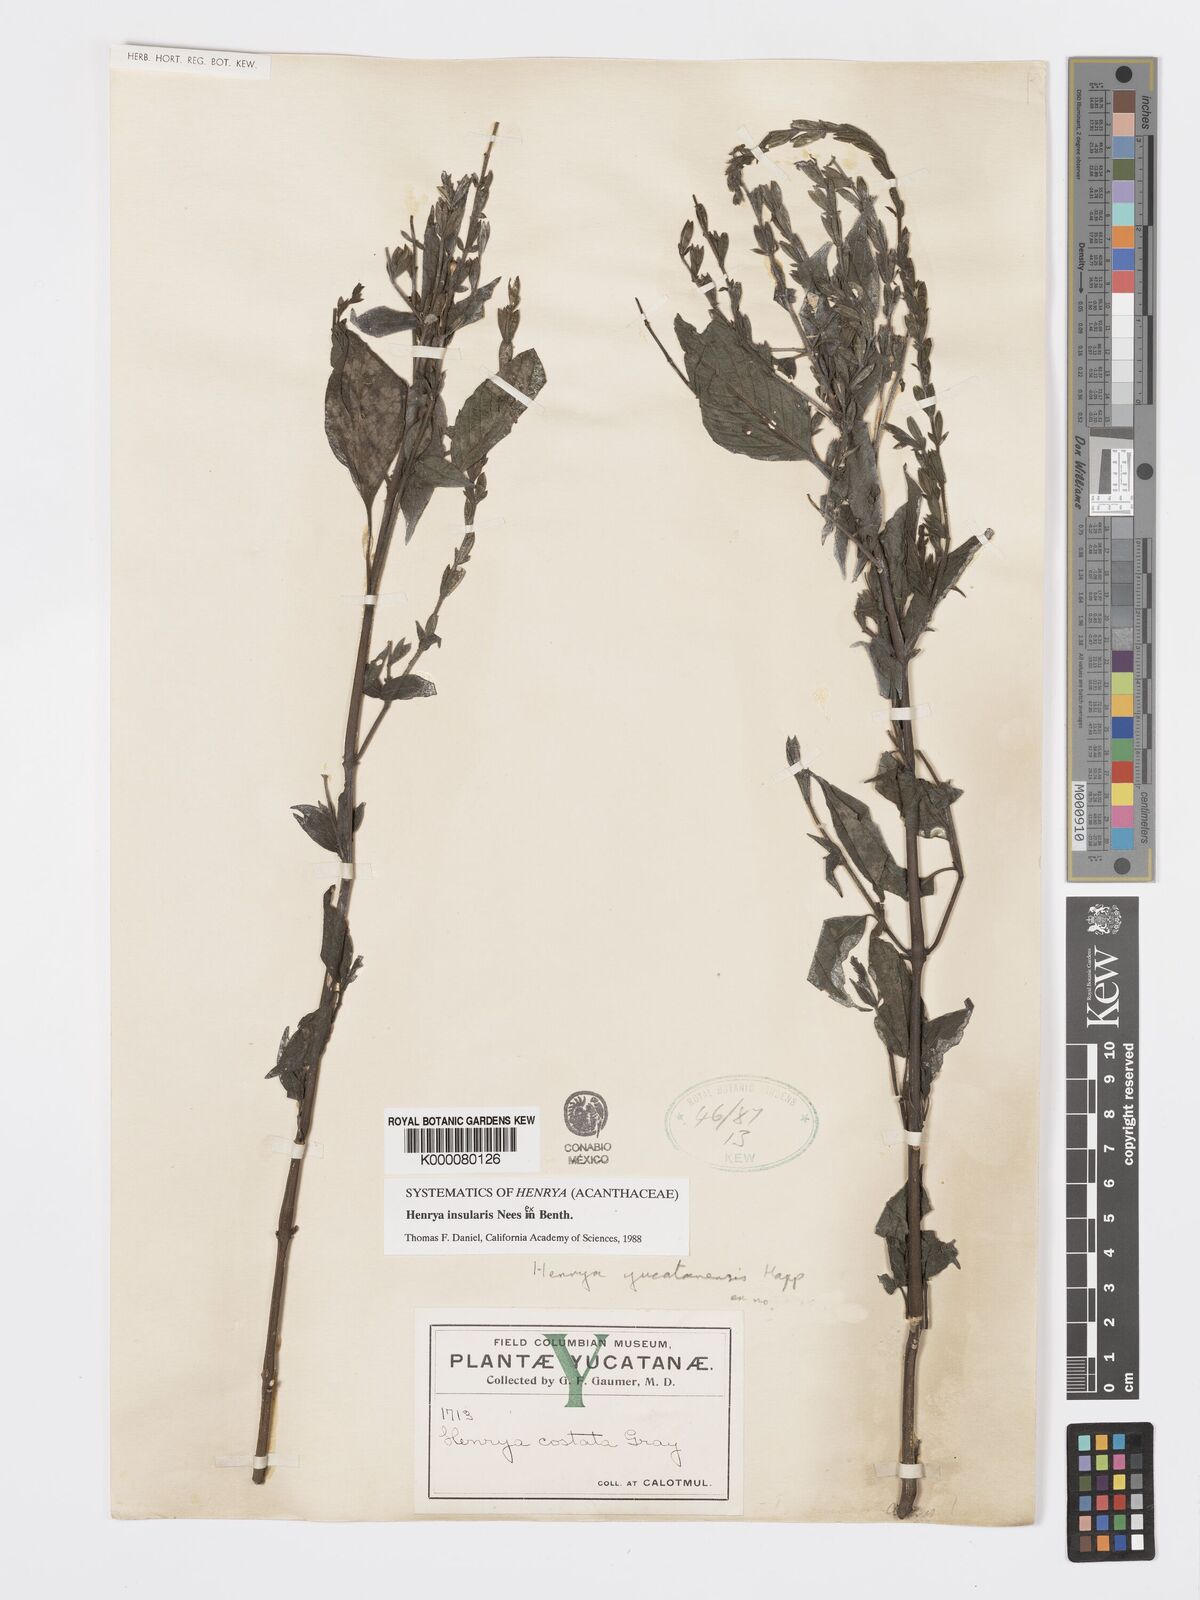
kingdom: Plantae
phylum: Tracheophyta
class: Magnoliopsida
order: Lamiales
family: Acanthaceae
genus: Henrya
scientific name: Henrya
